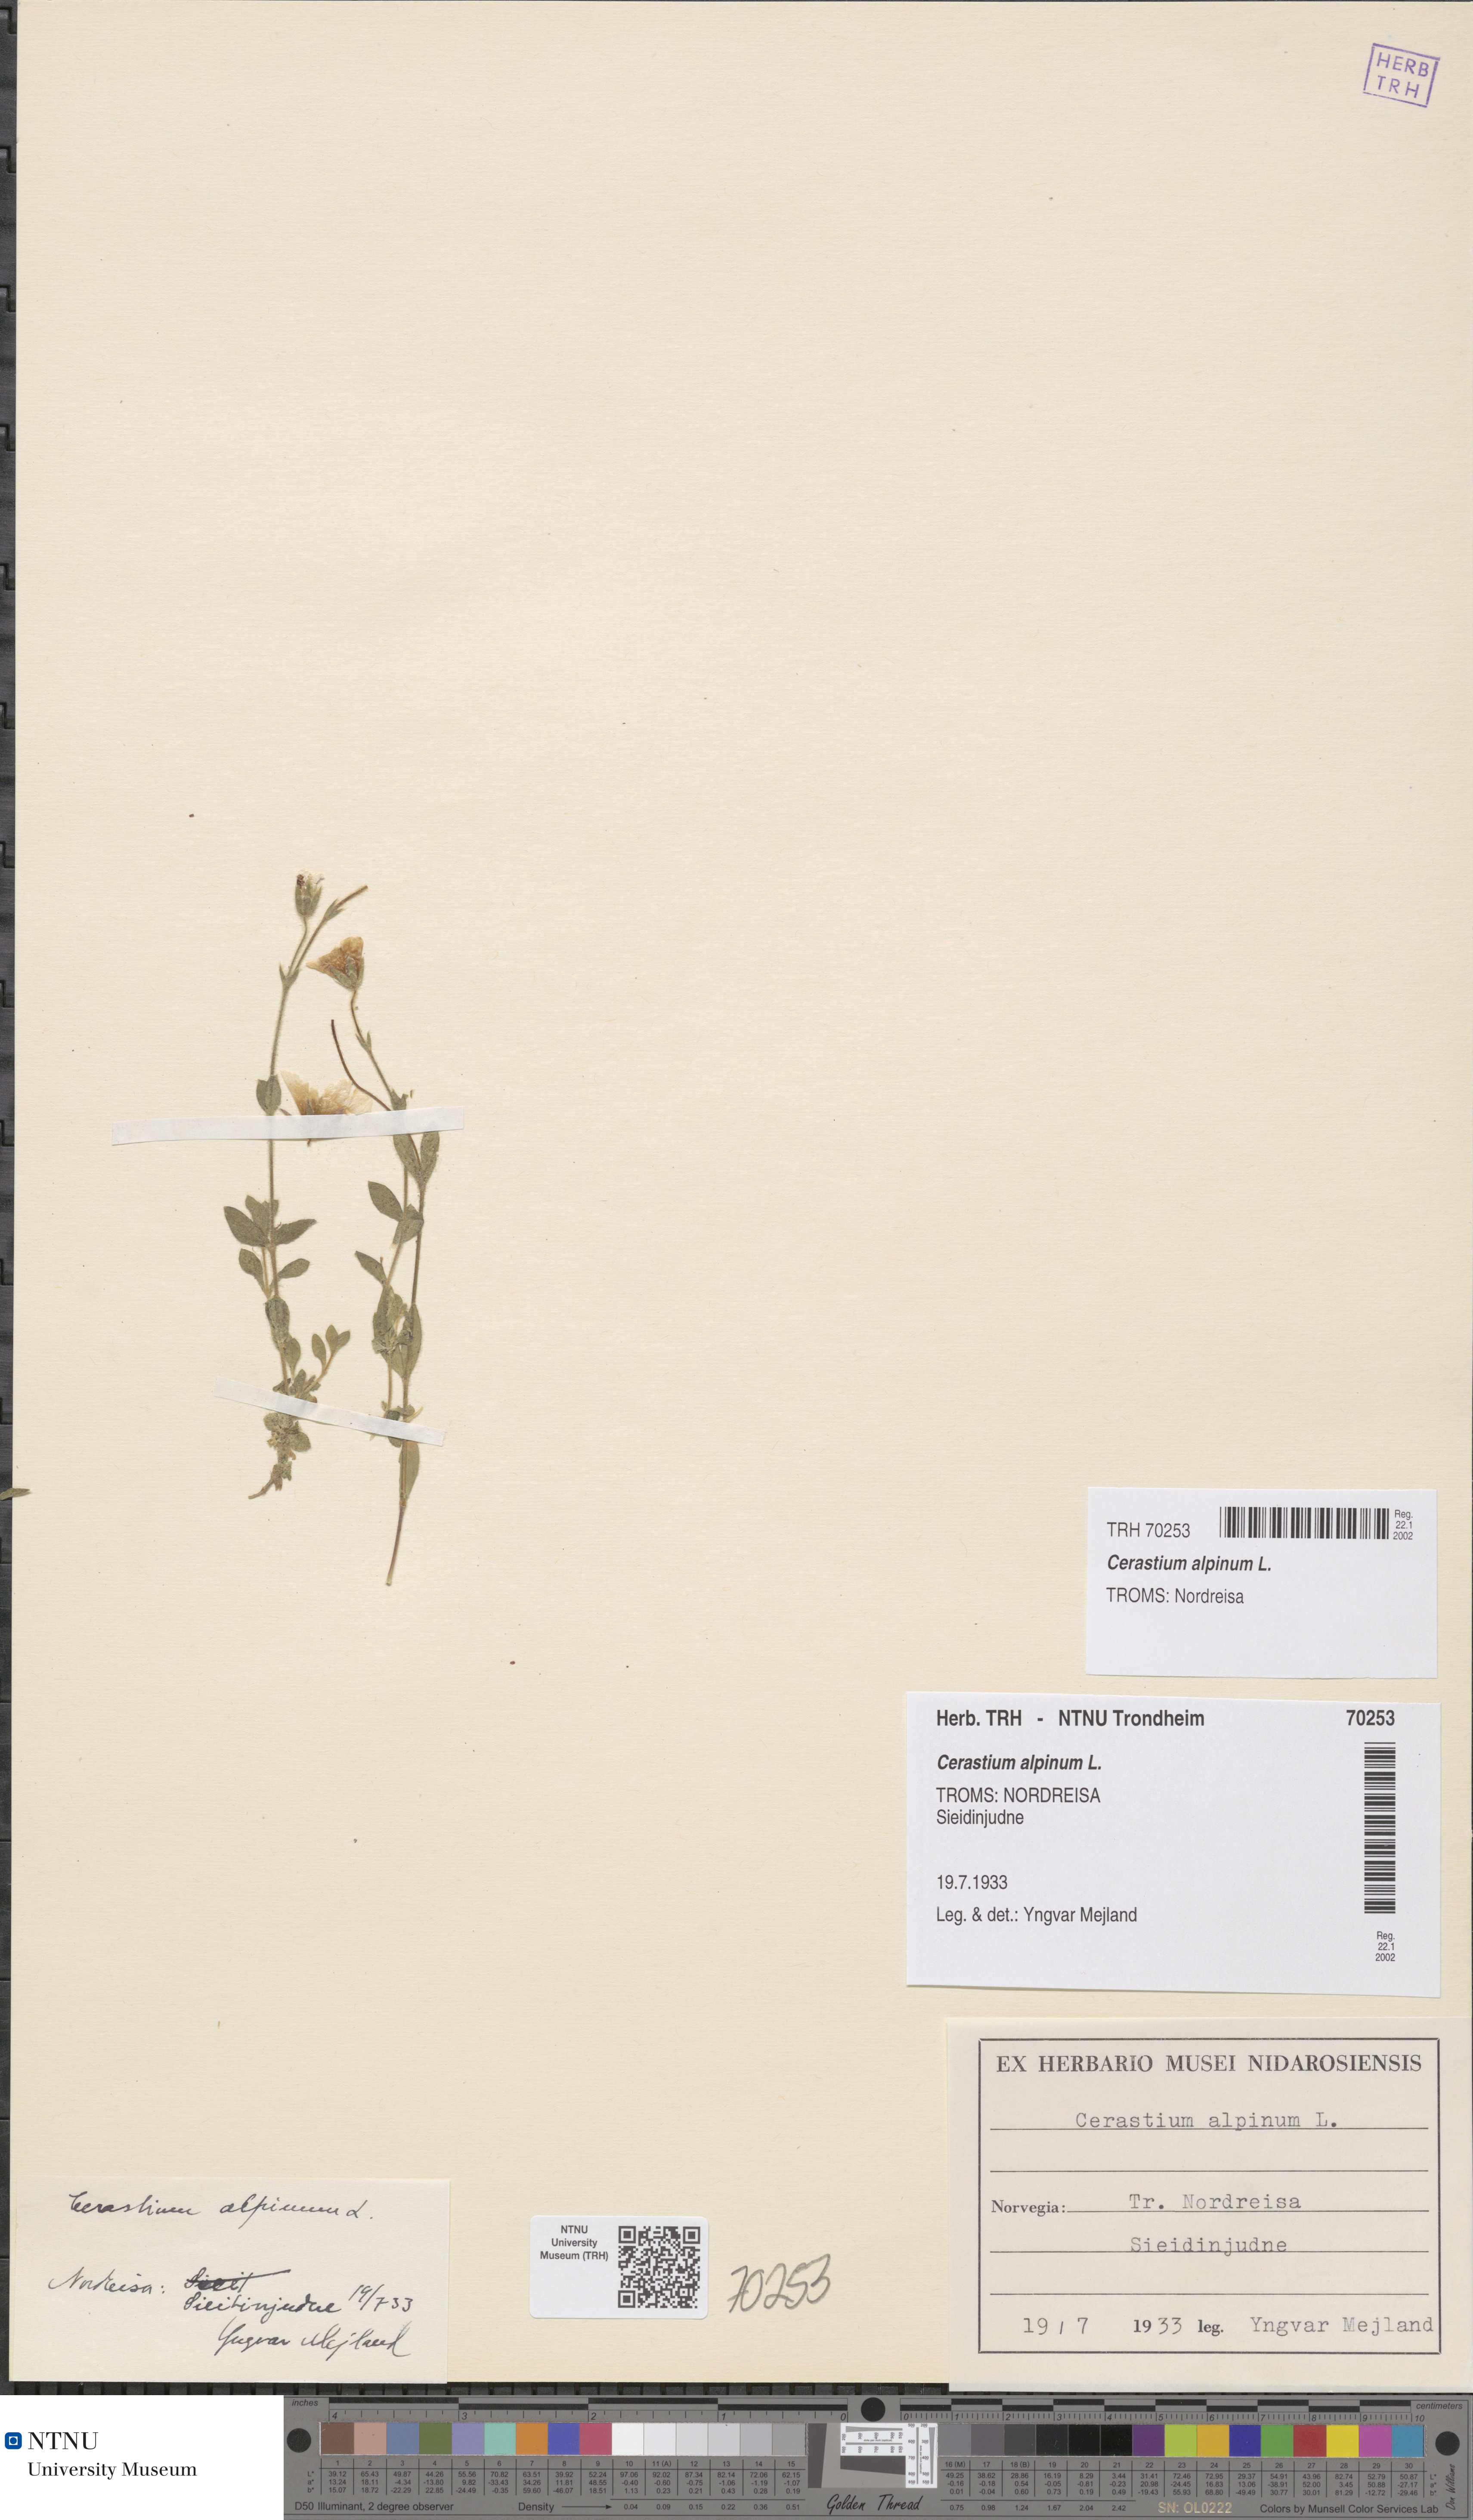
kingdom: Plantae
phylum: Tracheophyta
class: Magnoliopsida
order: Caryophyllales
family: Caryophyllaceae
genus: Cerastium
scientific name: Cerastium alpinum
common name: Alpine mouse-ear
